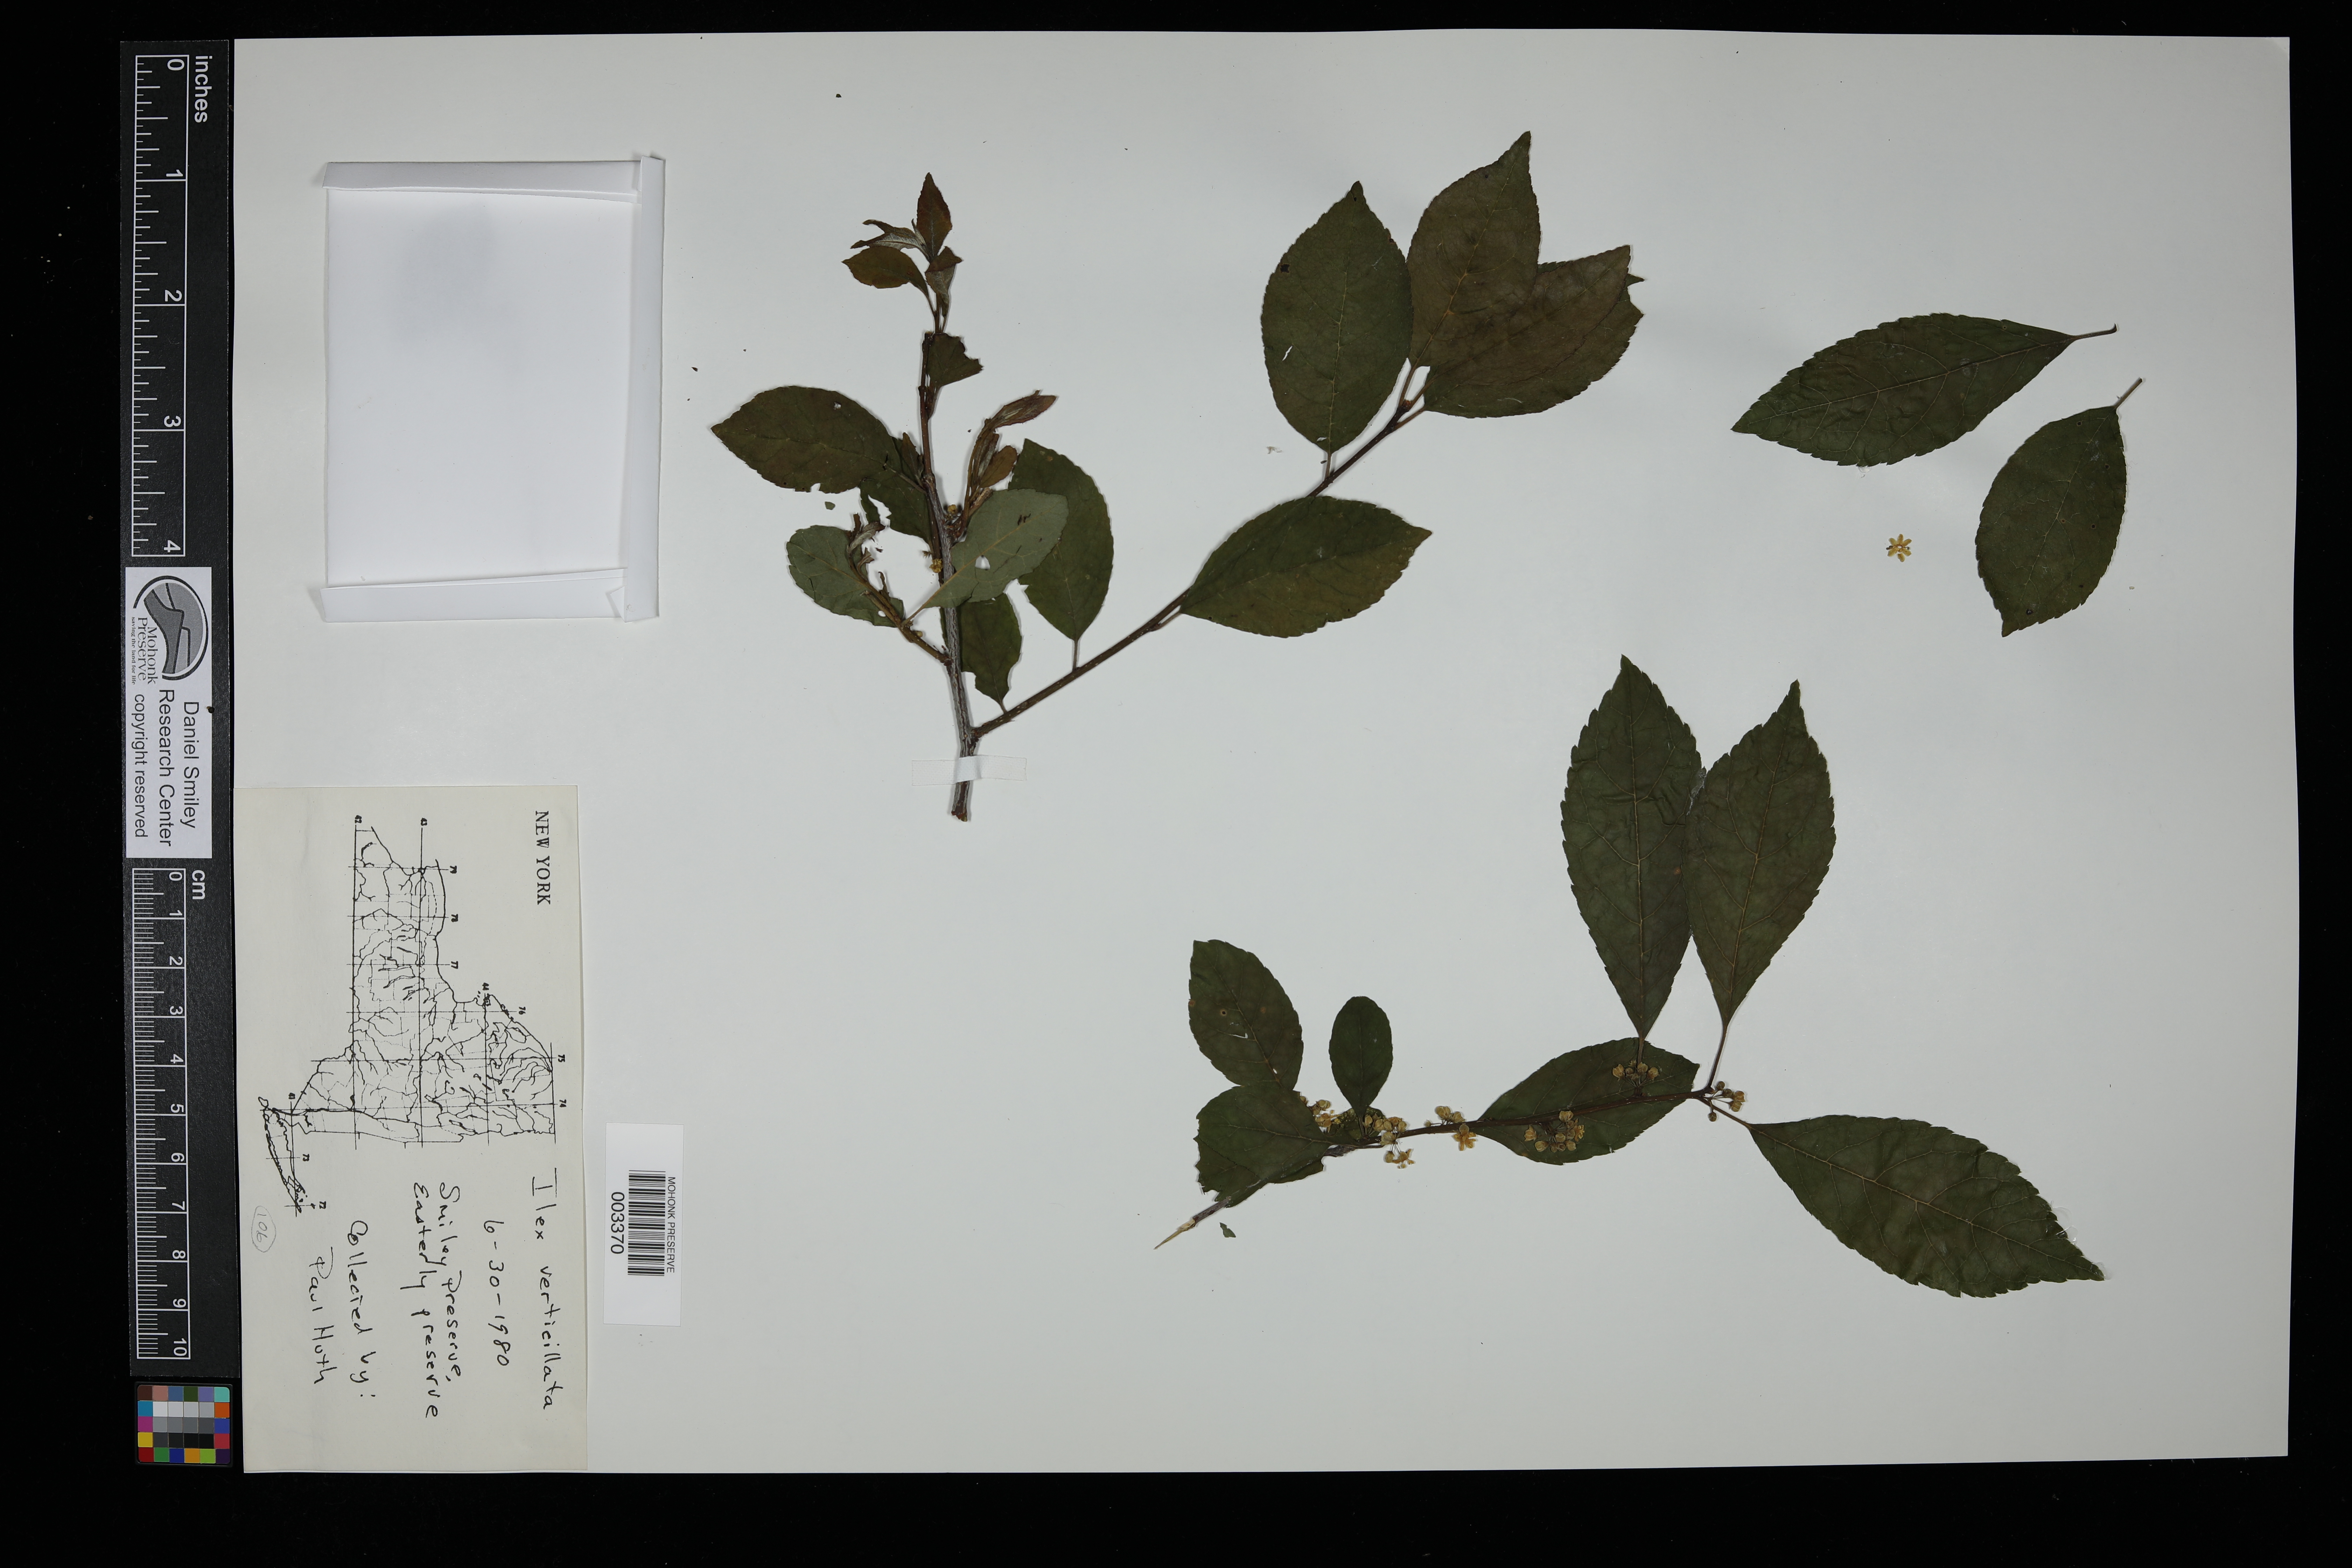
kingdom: Plantae
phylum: Tracheophyta
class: Magnoliopsida
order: Aquifoliales
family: Aquifoliaceae
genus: Ilex
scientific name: Ilex verticillata
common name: Virginia winterberry
